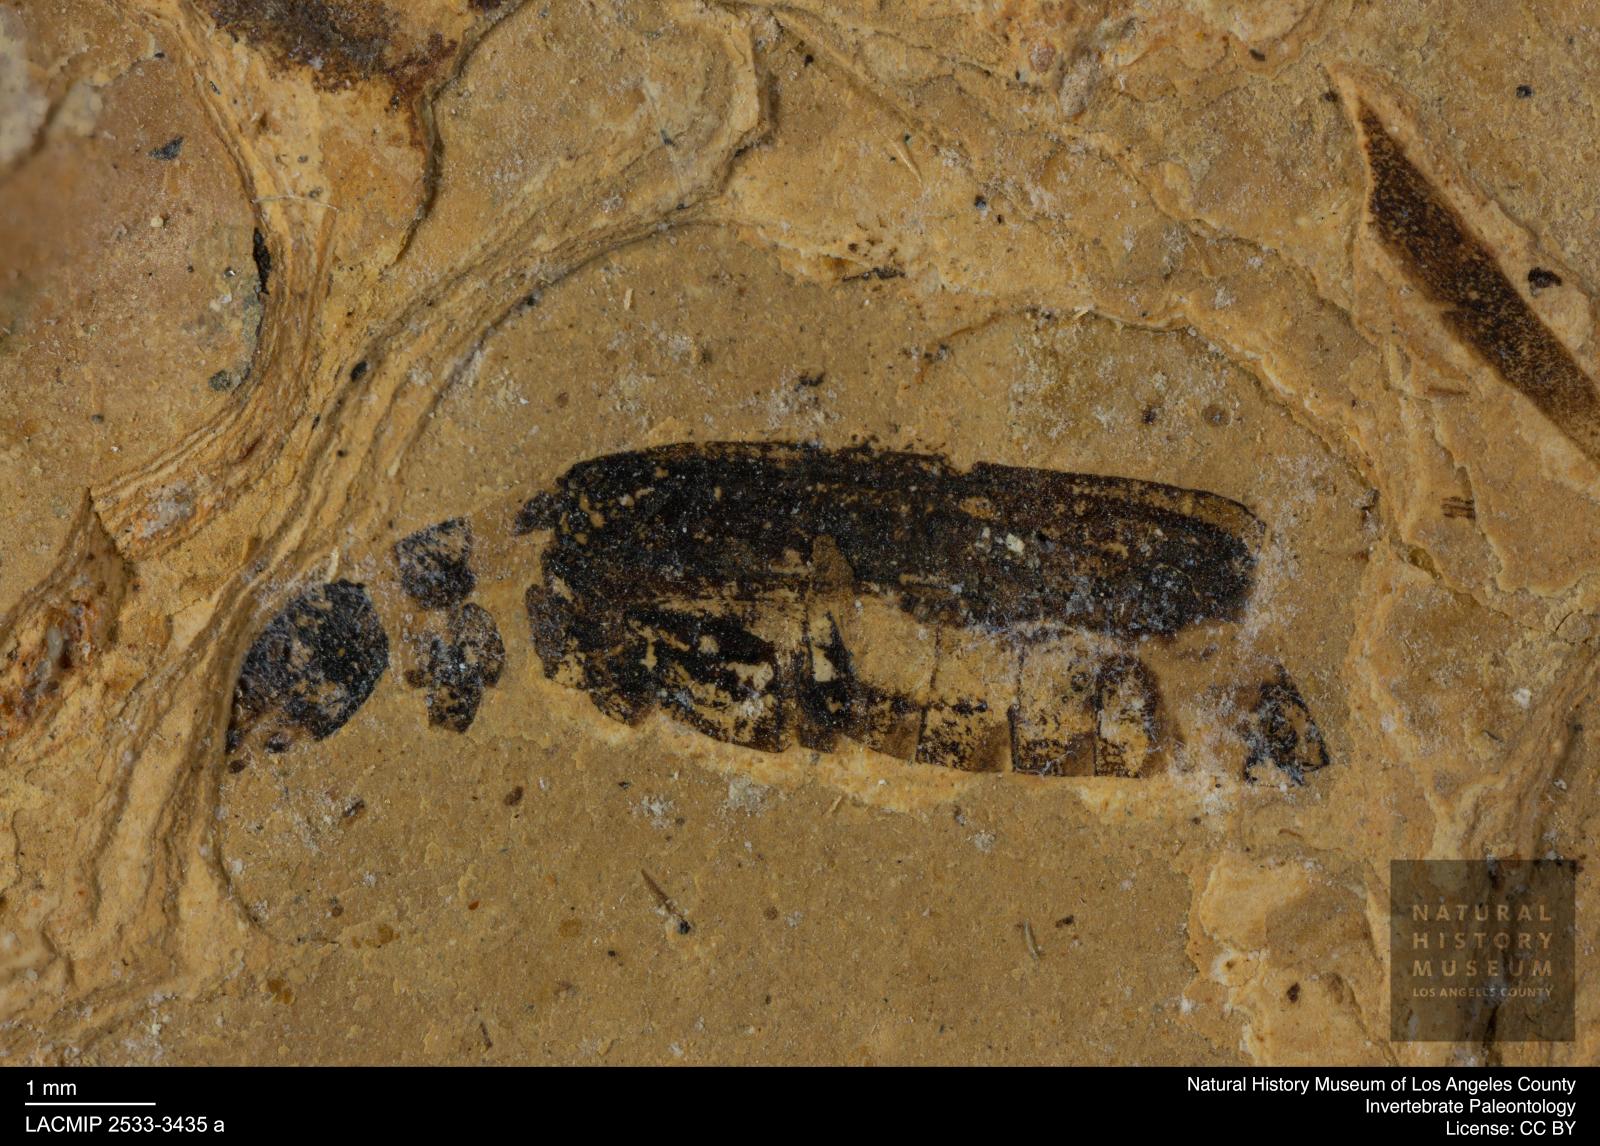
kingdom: Animalia
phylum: Arthropoda
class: Insecta
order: Coleoptera
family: Cantharidae
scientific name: Cantharidae
